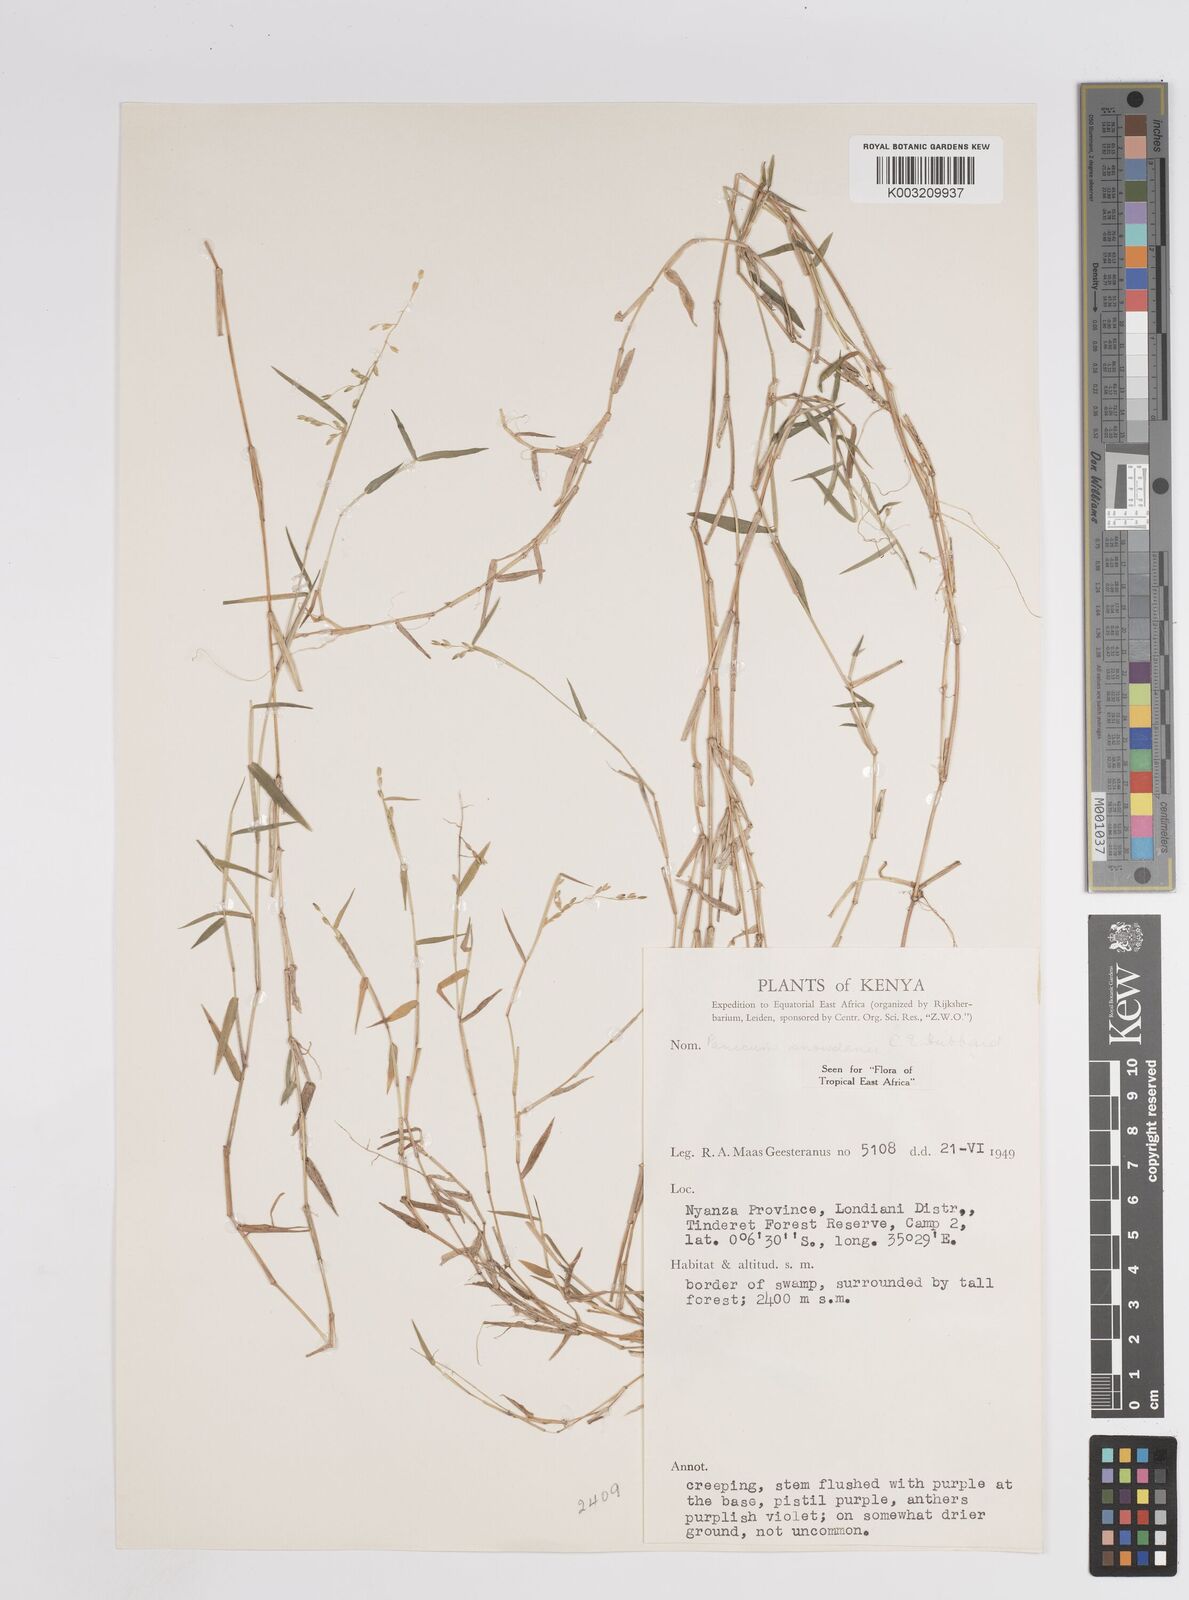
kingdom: Plantae
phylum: Tracheophyta
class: Liliopsida
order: Poales
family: Poaceae
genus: Adenochloa
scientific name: Adenochloa hymeniochila
